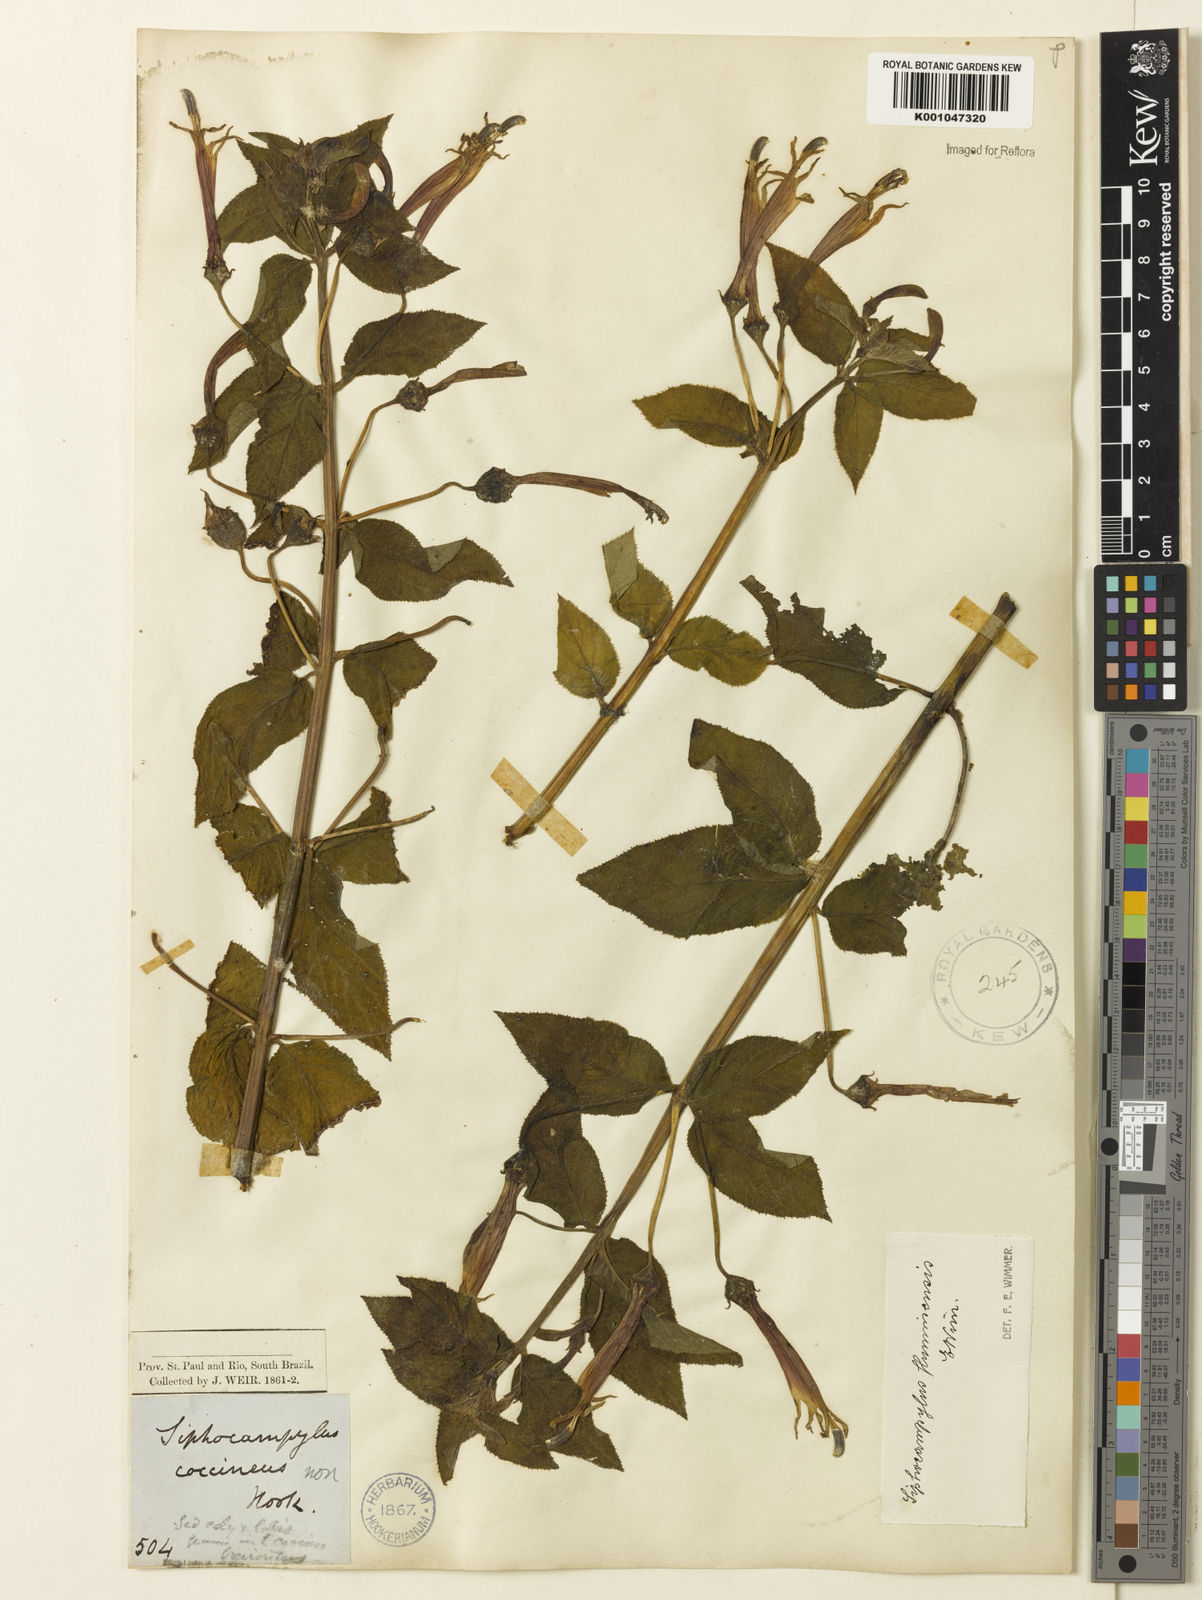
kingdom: Plantae
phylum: Tracheophyta
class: Magnoliopsida
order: Asterales
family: Campanulaceae
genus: Siphocampylus
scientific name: Siphocampylus fluminensis
